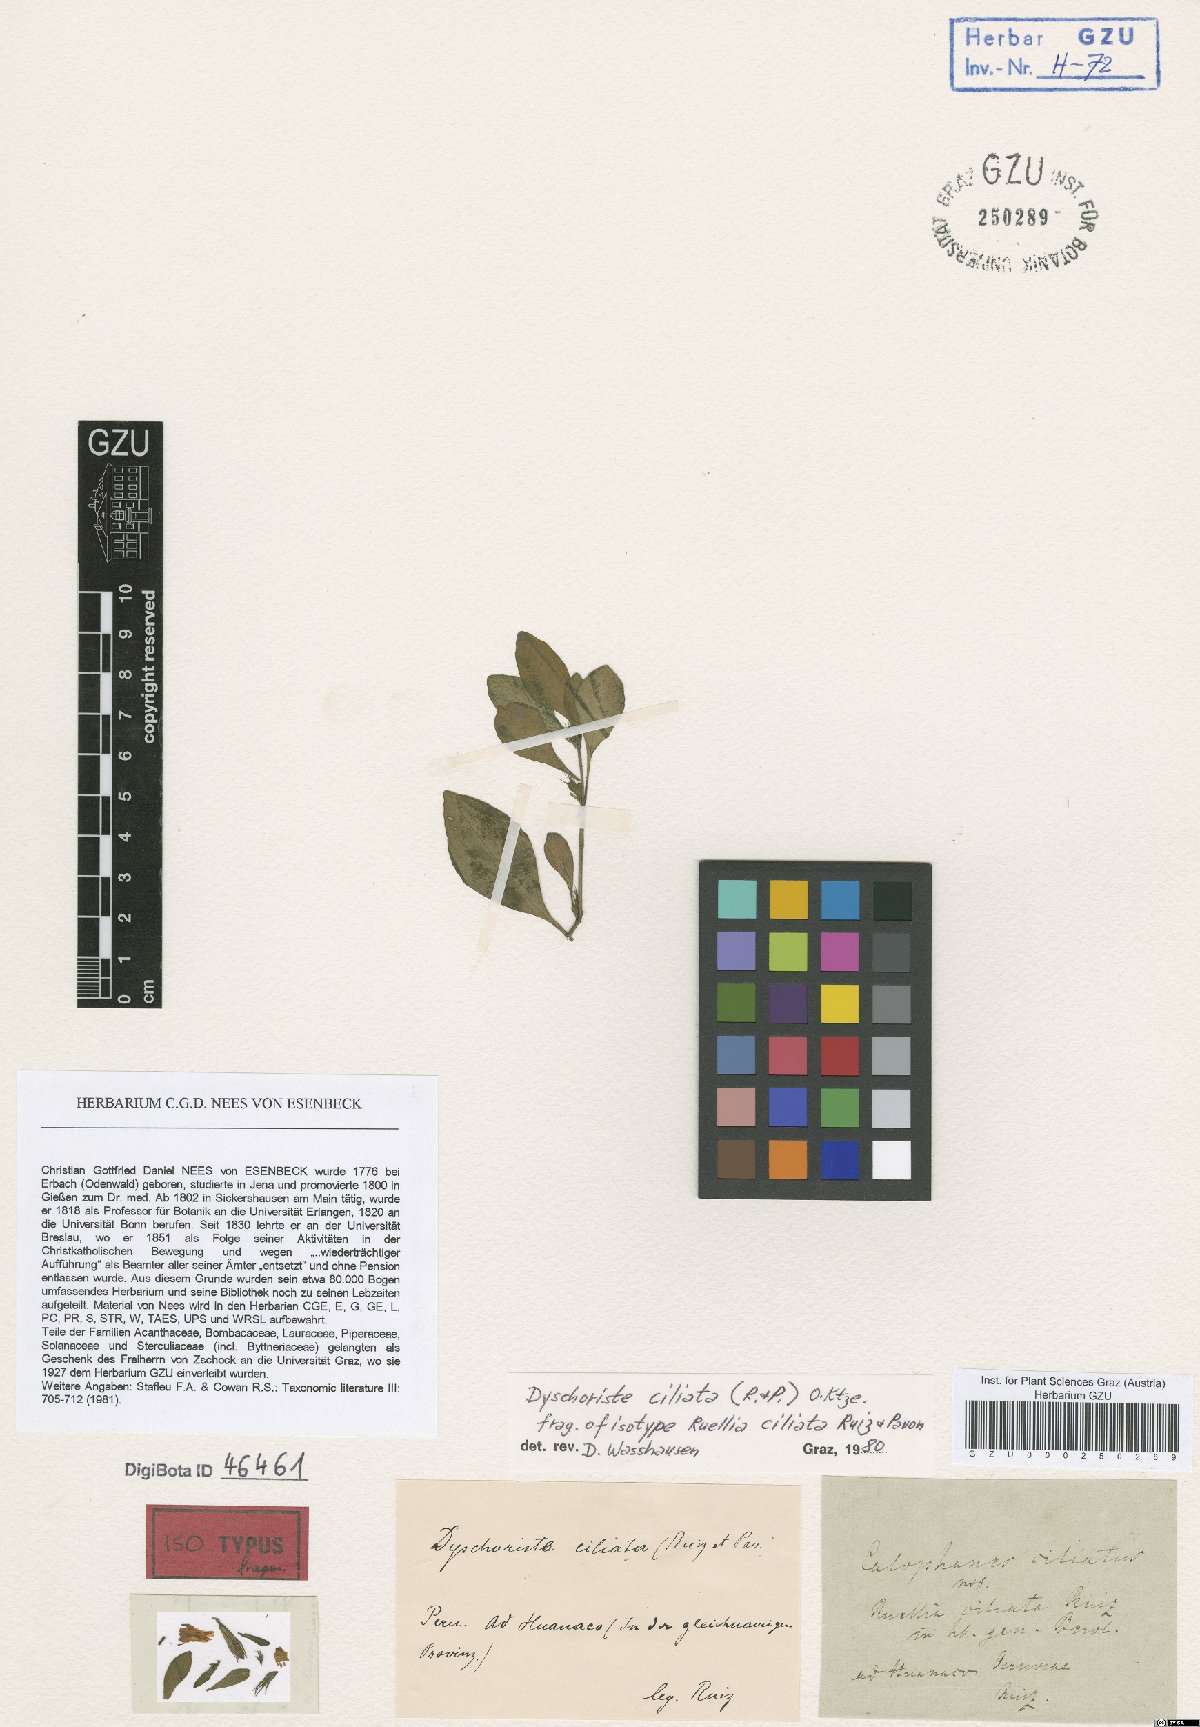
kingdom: Plantae
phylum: Tracheophyta
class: Magnoliopsida
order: Lamiales
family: Acanthaceae
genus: Dyschoriste
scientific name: Dyschoriste ciliata
